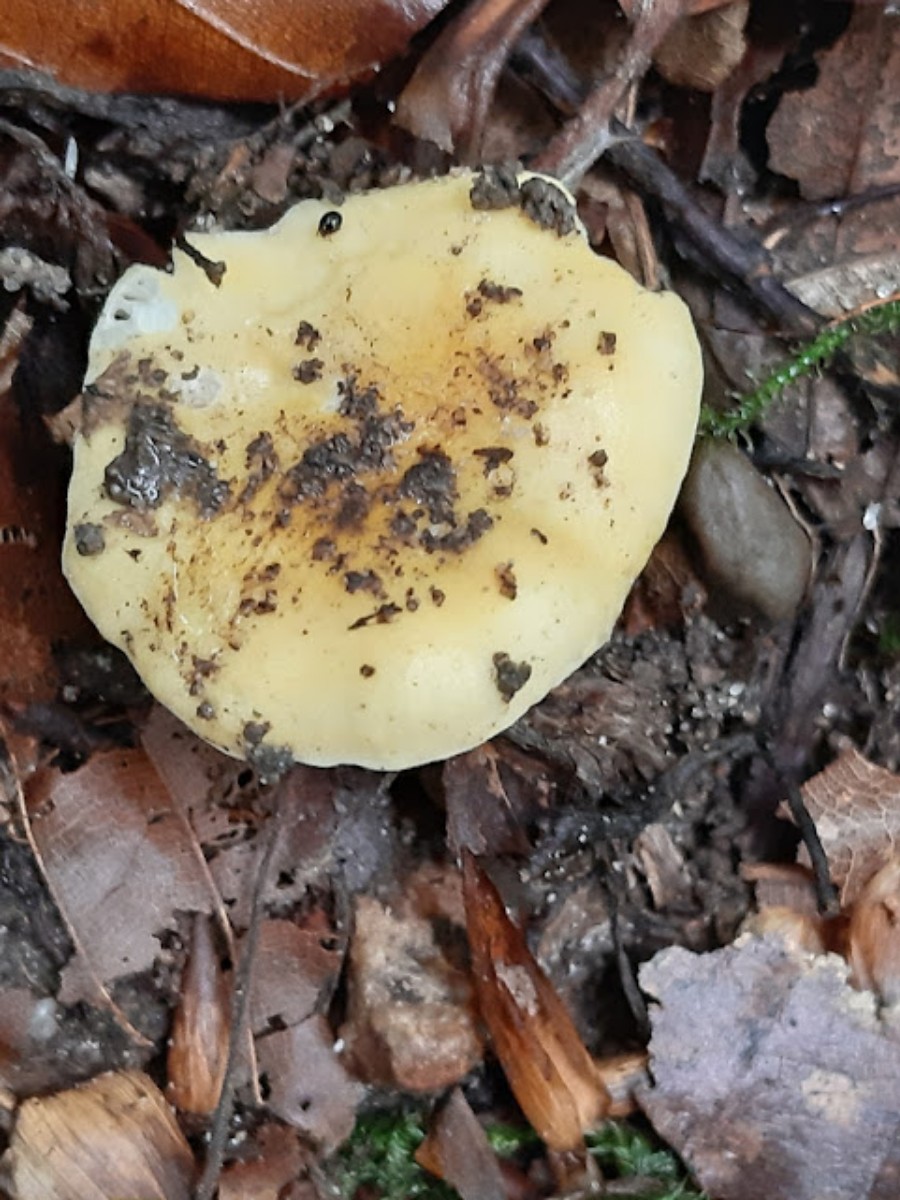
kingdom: Fungi
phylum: Basidiomycota
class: Agaricomycetes
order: Russulales
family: Russulaceae
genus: Russula
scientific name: Russula risigallina
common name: abrikos-skørhat
